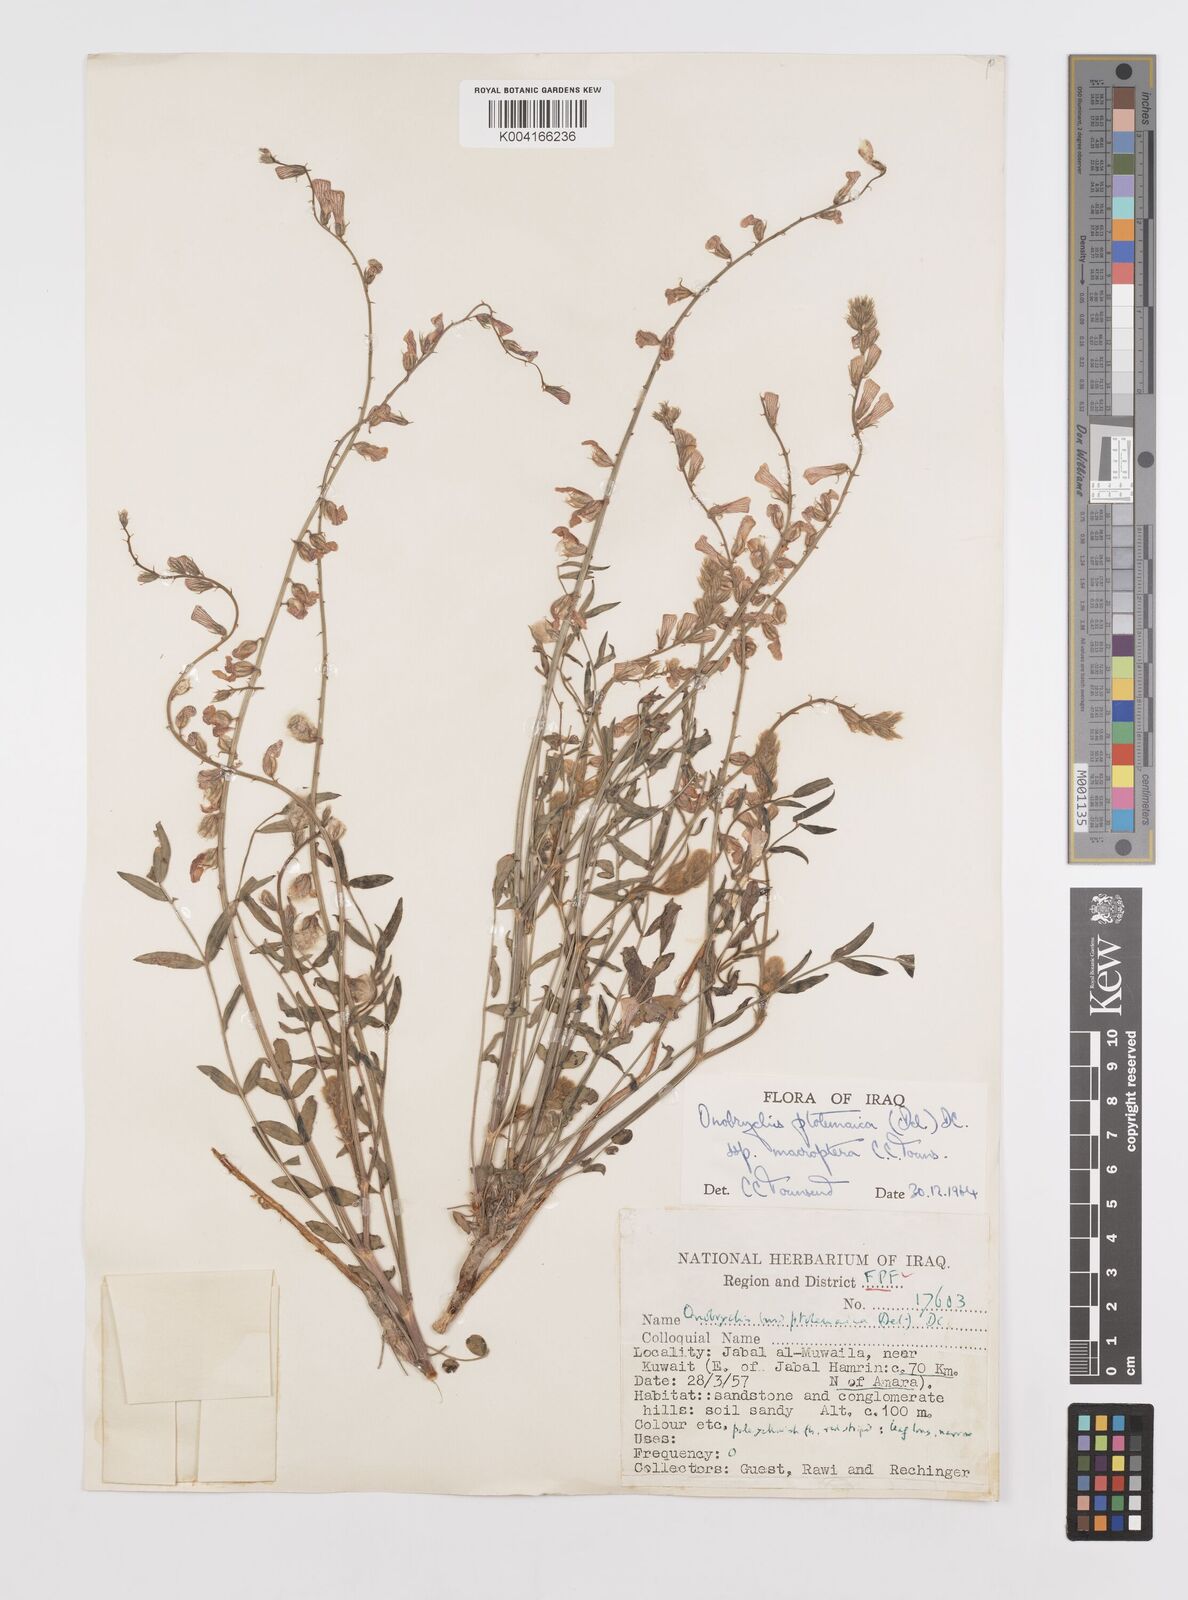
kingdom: Plantae
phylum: Tracheophyta
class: Magnoliopsida
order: Fabales
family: Fabaceae
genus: Onobrychis
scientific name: Onobrychis ptolemaica
